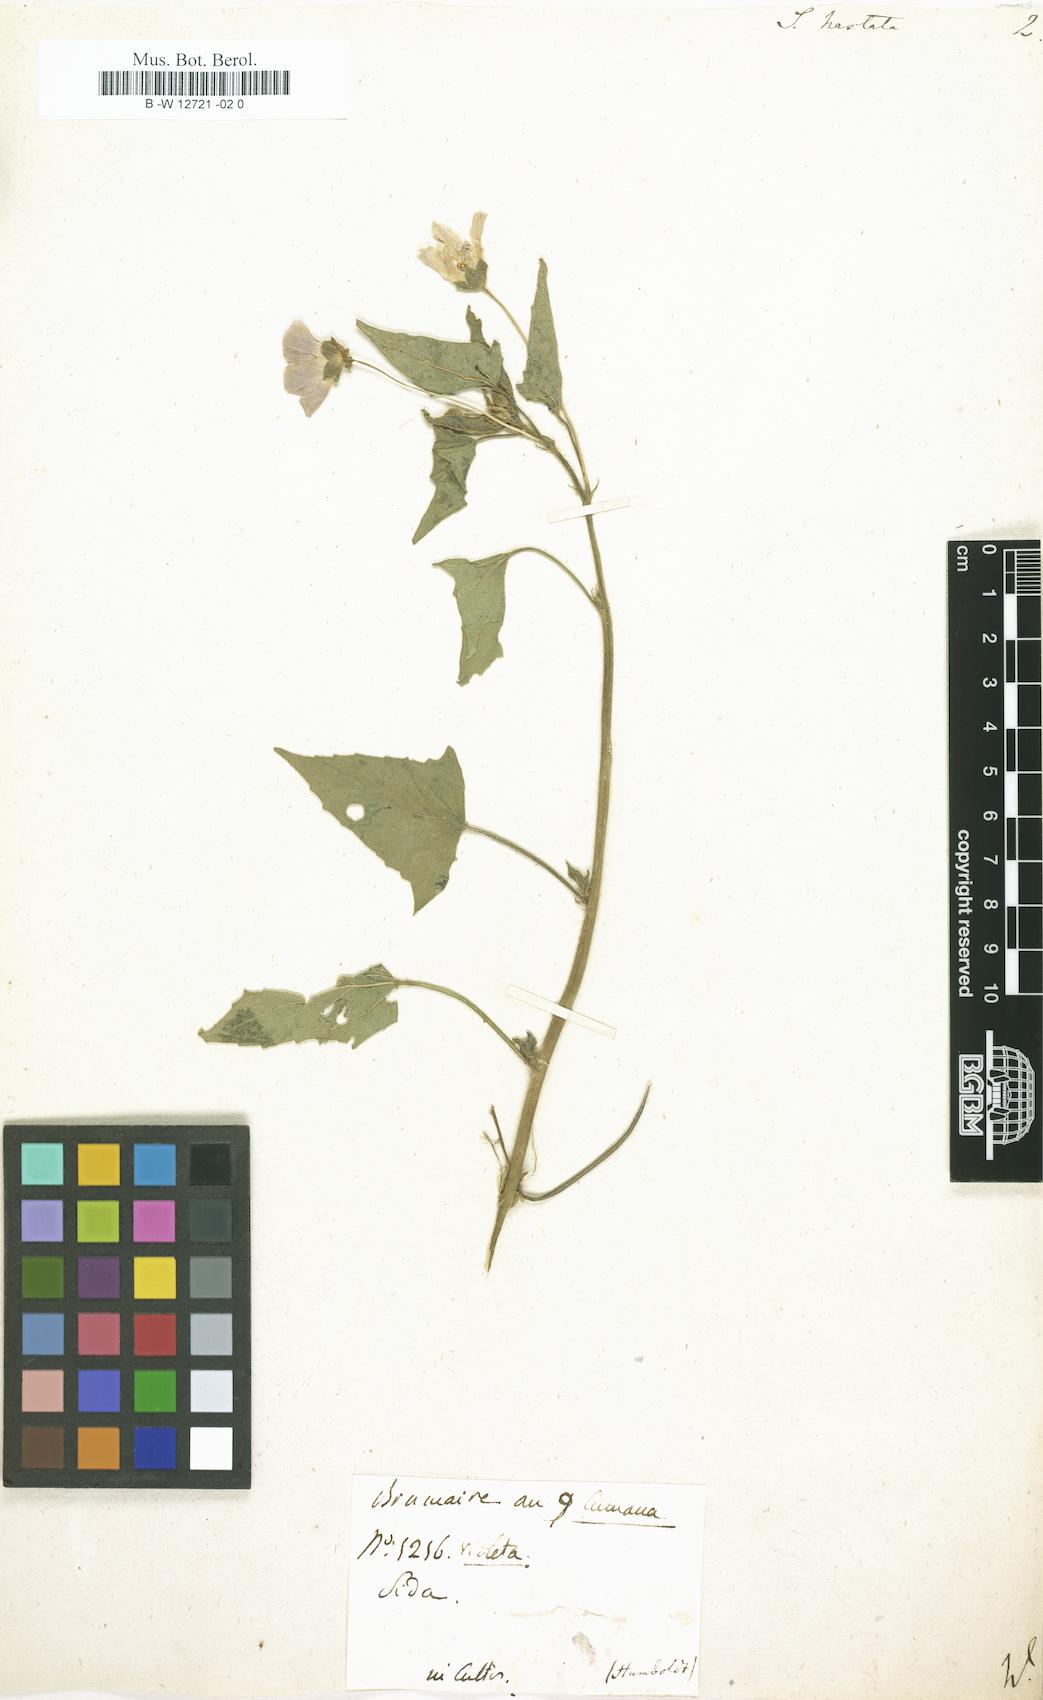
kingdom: Plantae
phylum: Tracheophyta
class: Magnoliopsida
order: Malvales
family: Malvaceae
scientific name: Malvaceae
